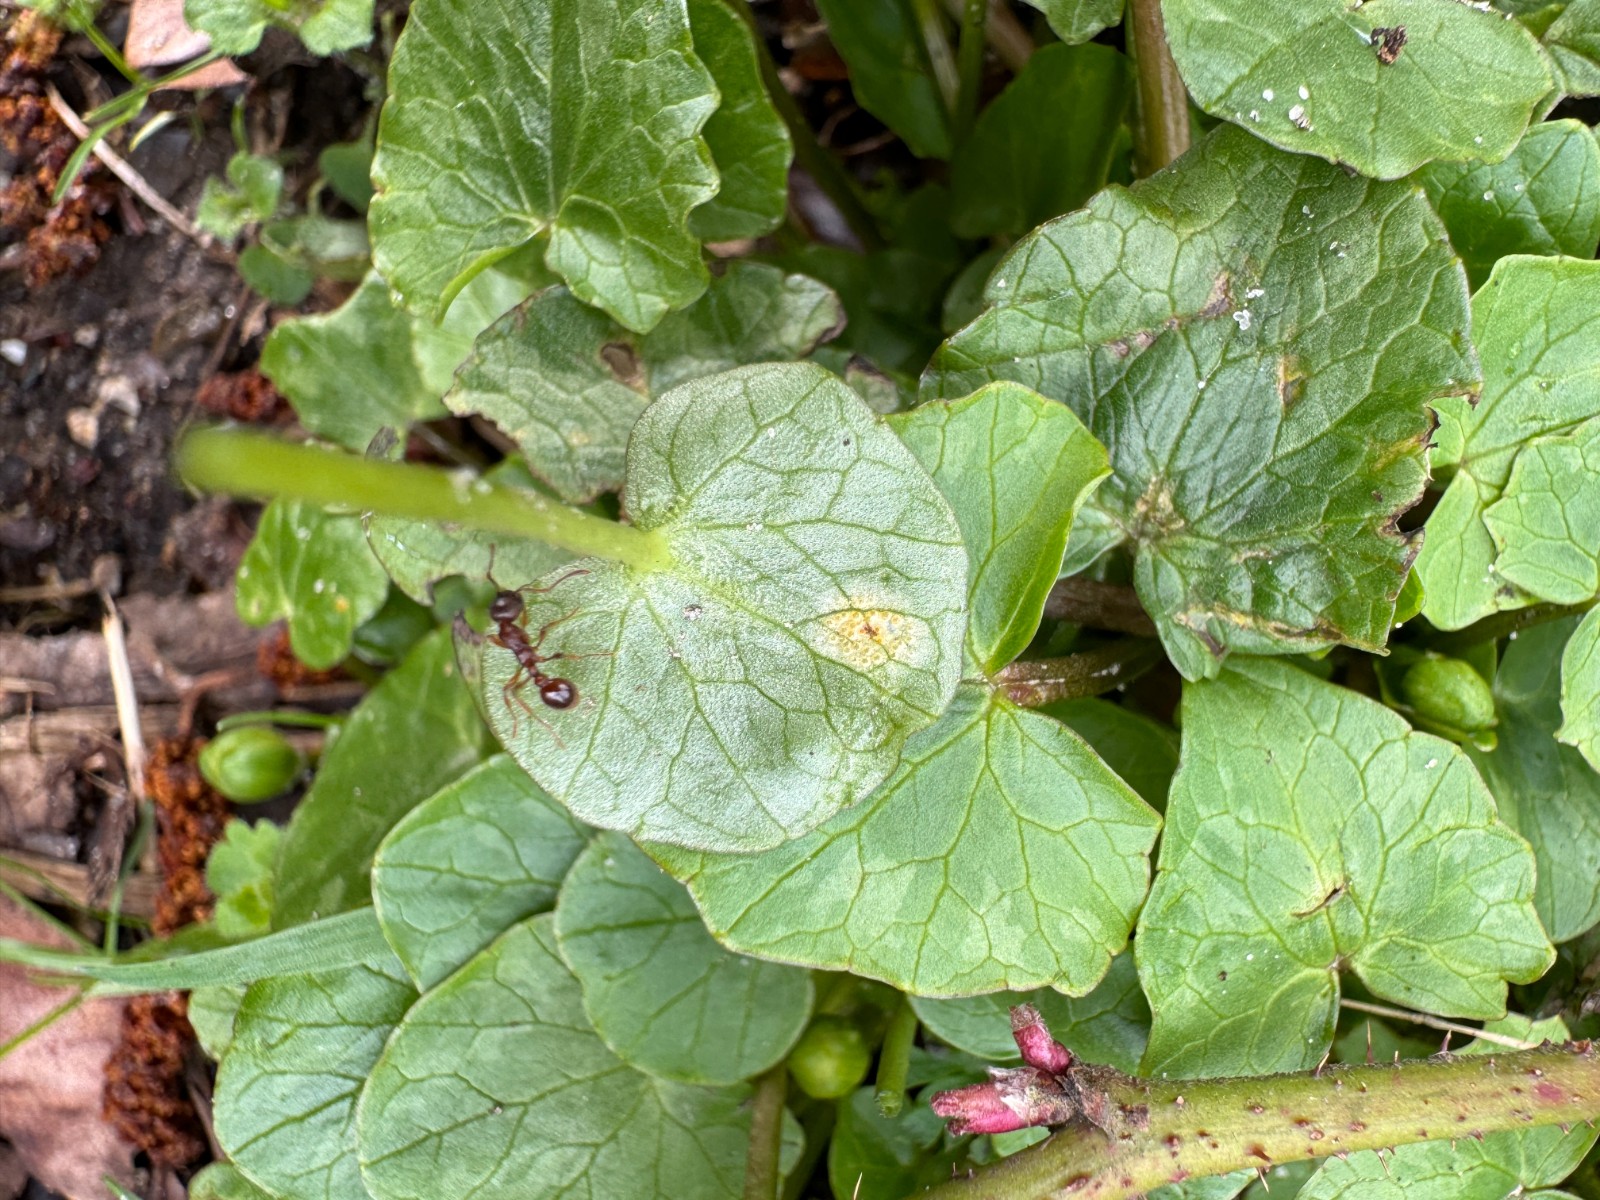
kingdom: Fungi
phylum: Basidiomycota
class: Pucciniomycetes
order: Pucciniales
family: Pucciniaceae
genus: Uromyces
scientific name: Uromyces ficariae
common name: vorterod-encellerust
